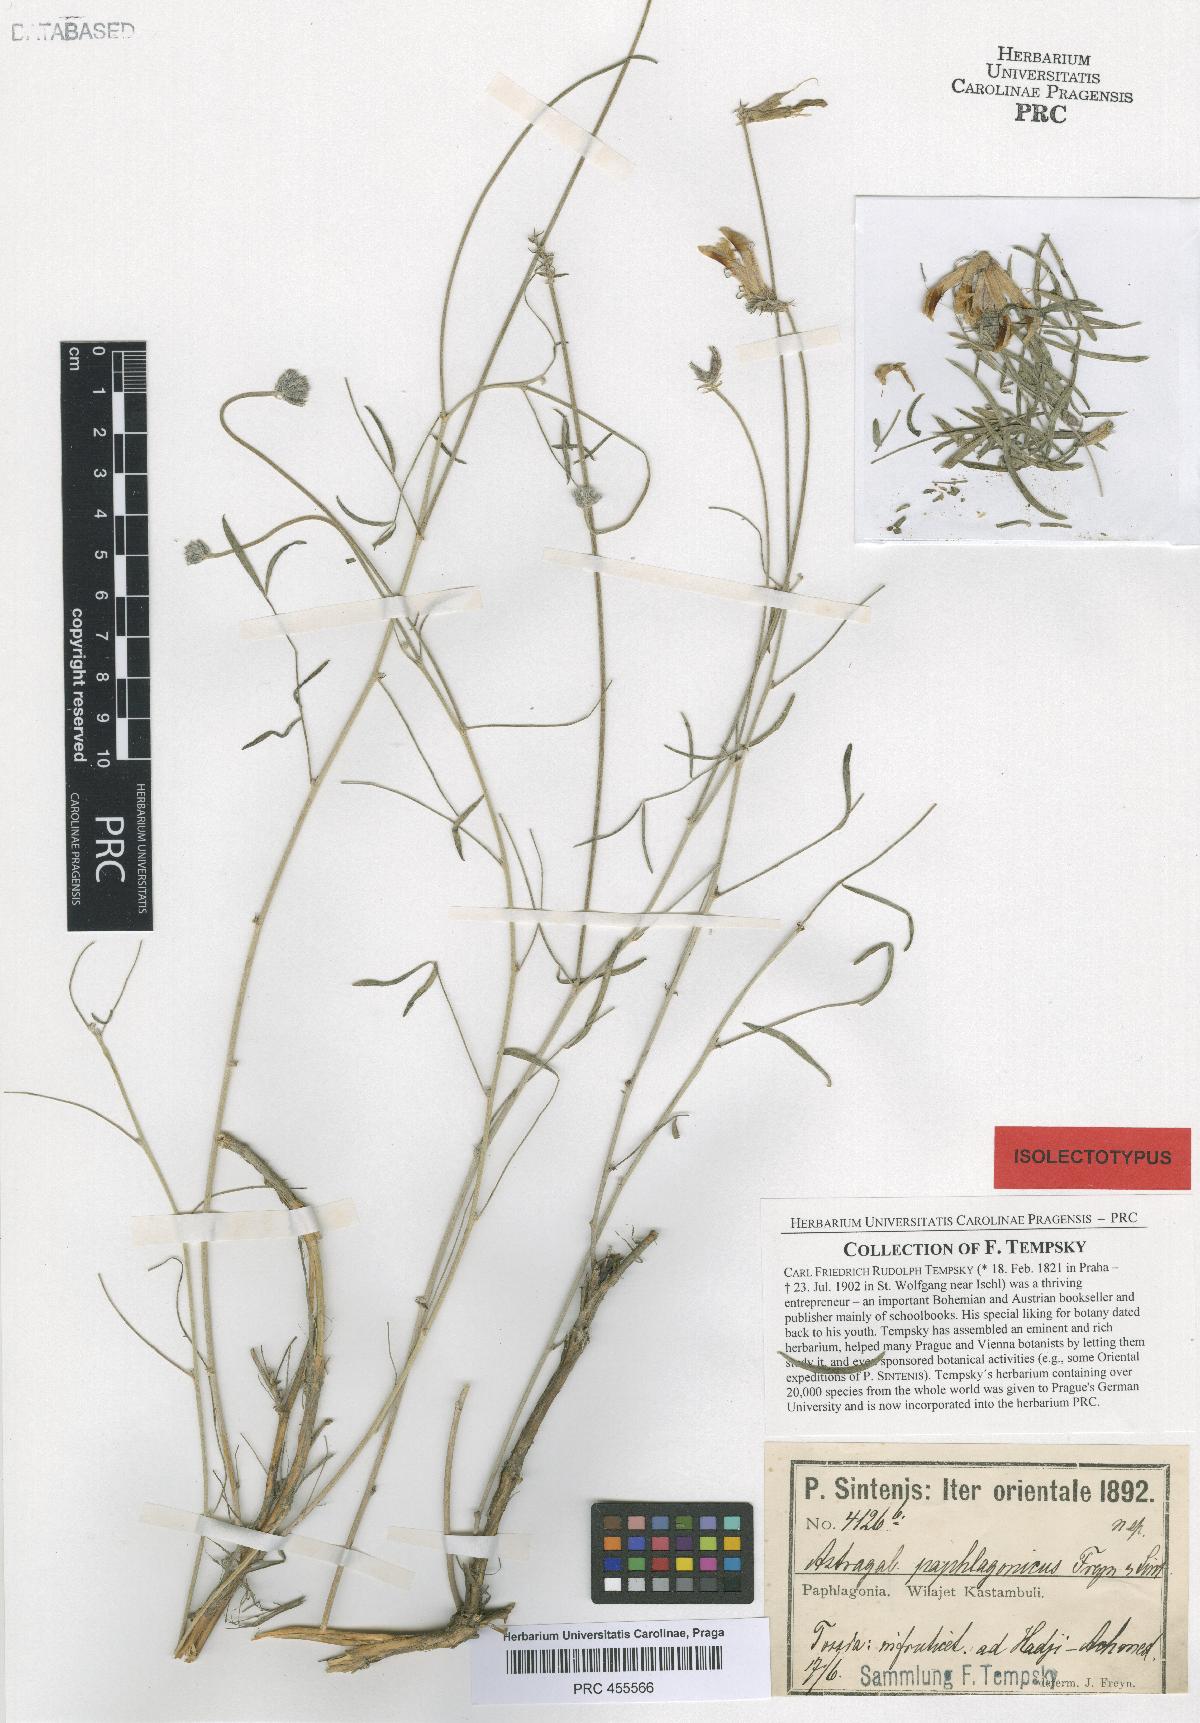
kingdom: Plantae
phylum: Tracheophyta
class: Magnoliopsida
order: Fabales
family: Fabaceae
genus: Astragalus
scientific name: Astragalus kastamonuensis
